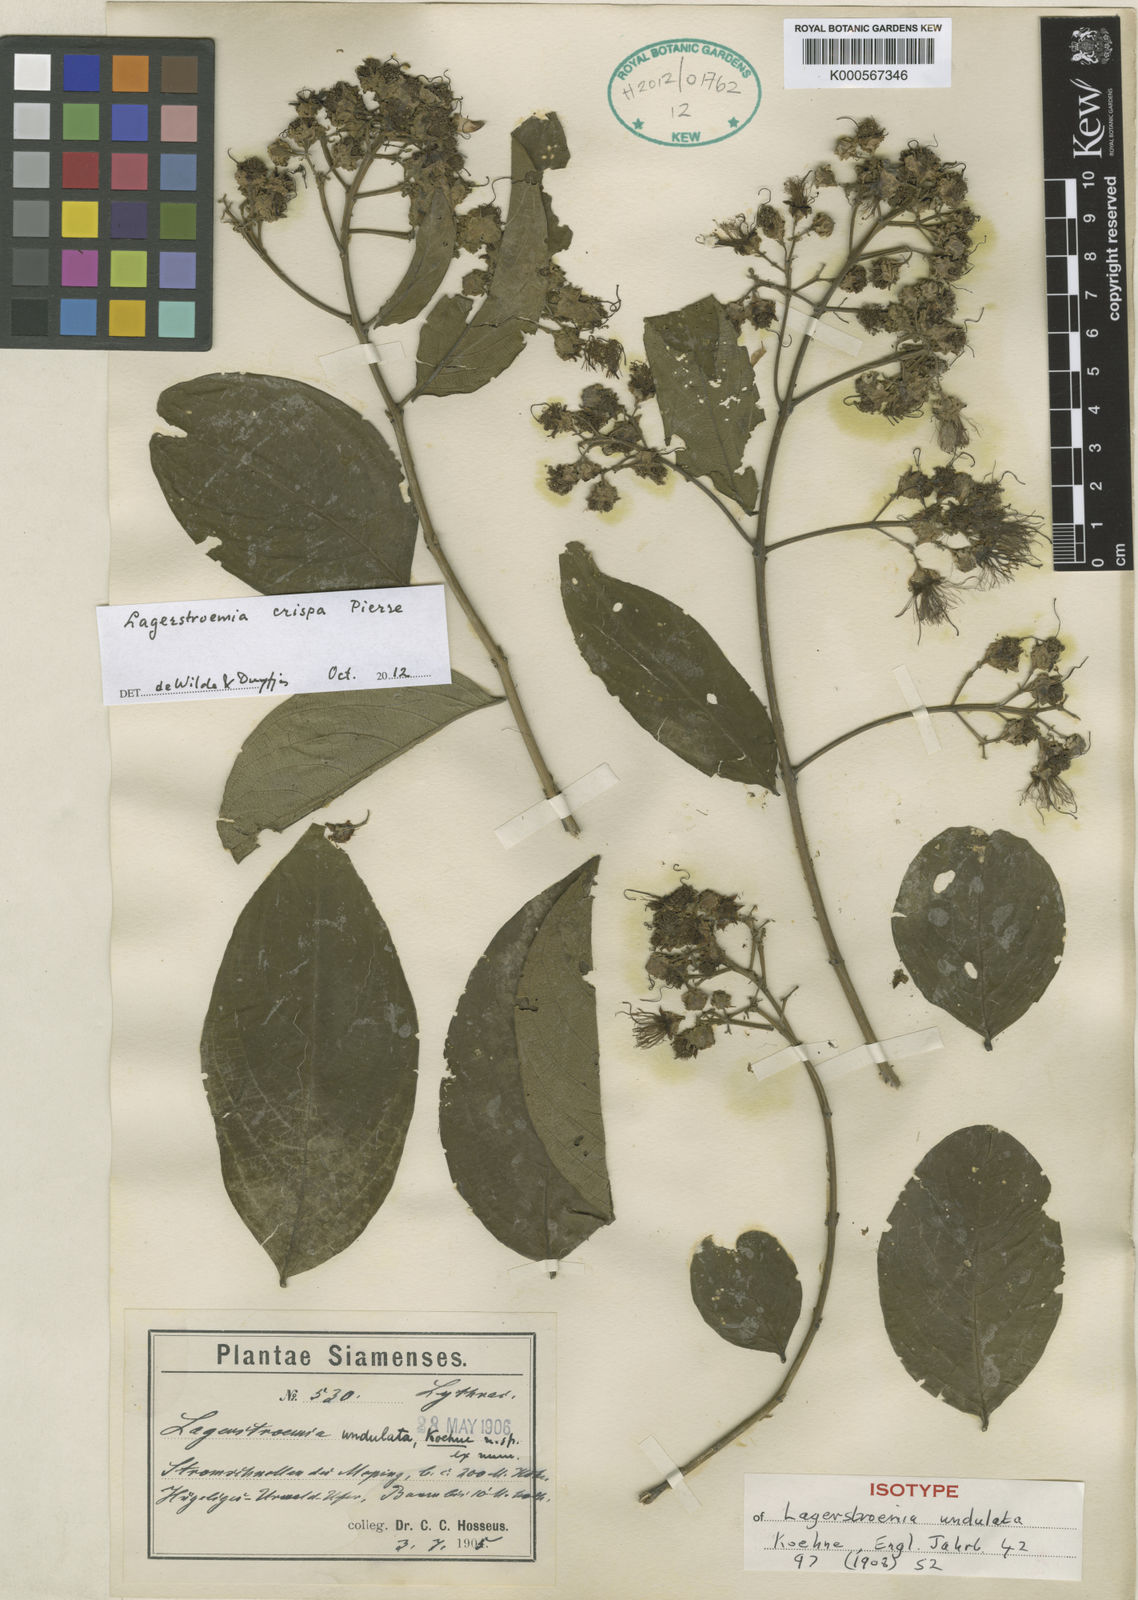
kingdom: Plantae
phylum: Tracheophyta
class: Magnoliopsida
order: Myrtales
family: Lythraceae
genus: Lagerstroemia
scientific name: Lagerstroemia
